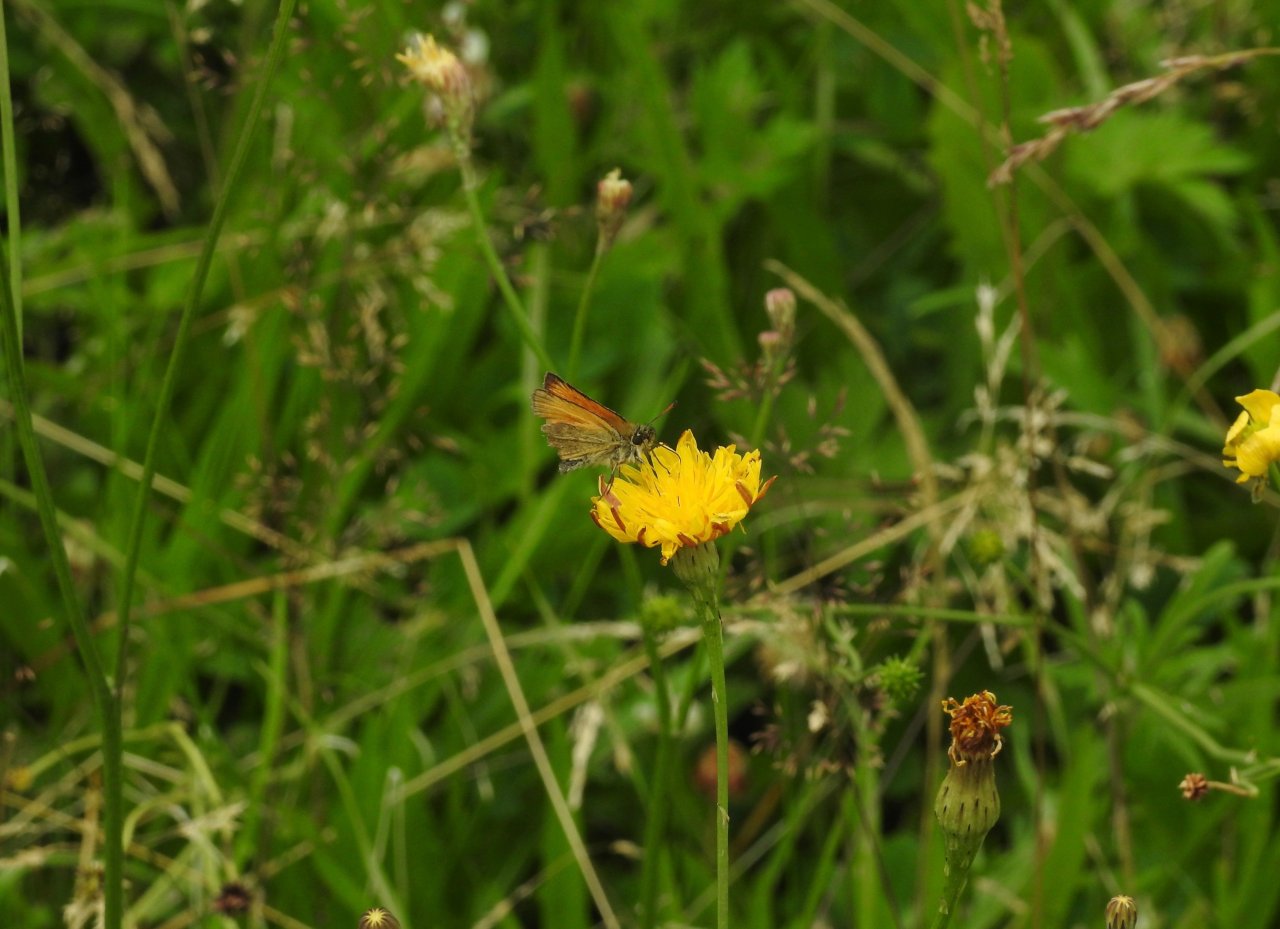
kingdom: Animalia
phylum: Arthropoda
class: Insecta
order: Lepidoptera
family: Hesperiidae
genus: Thymelicus
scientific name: Thymelicus lineola
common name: European Skipper
